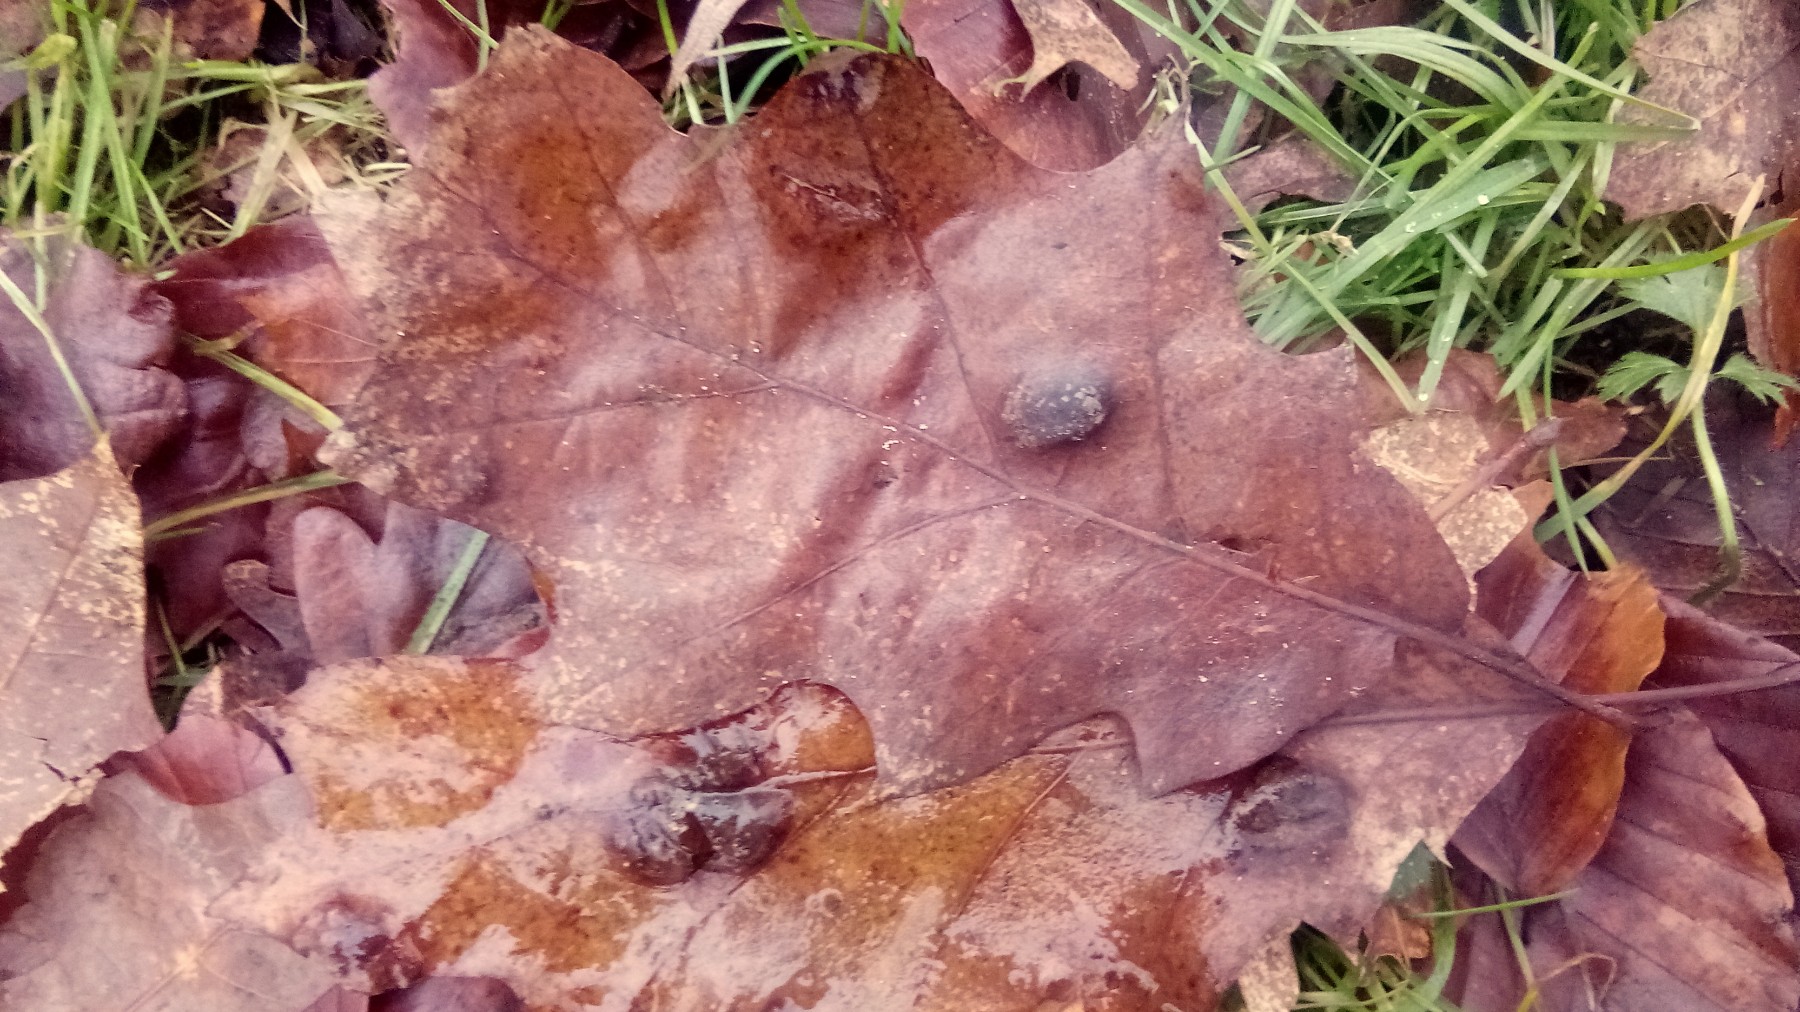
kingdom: Fungi
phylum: Ascomycota
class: Taphrinomycetes
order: Taphrinales
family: Taphrinaceae
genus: Taphrina
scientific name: Taphrina caerulescens
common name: Oak leaf blister
